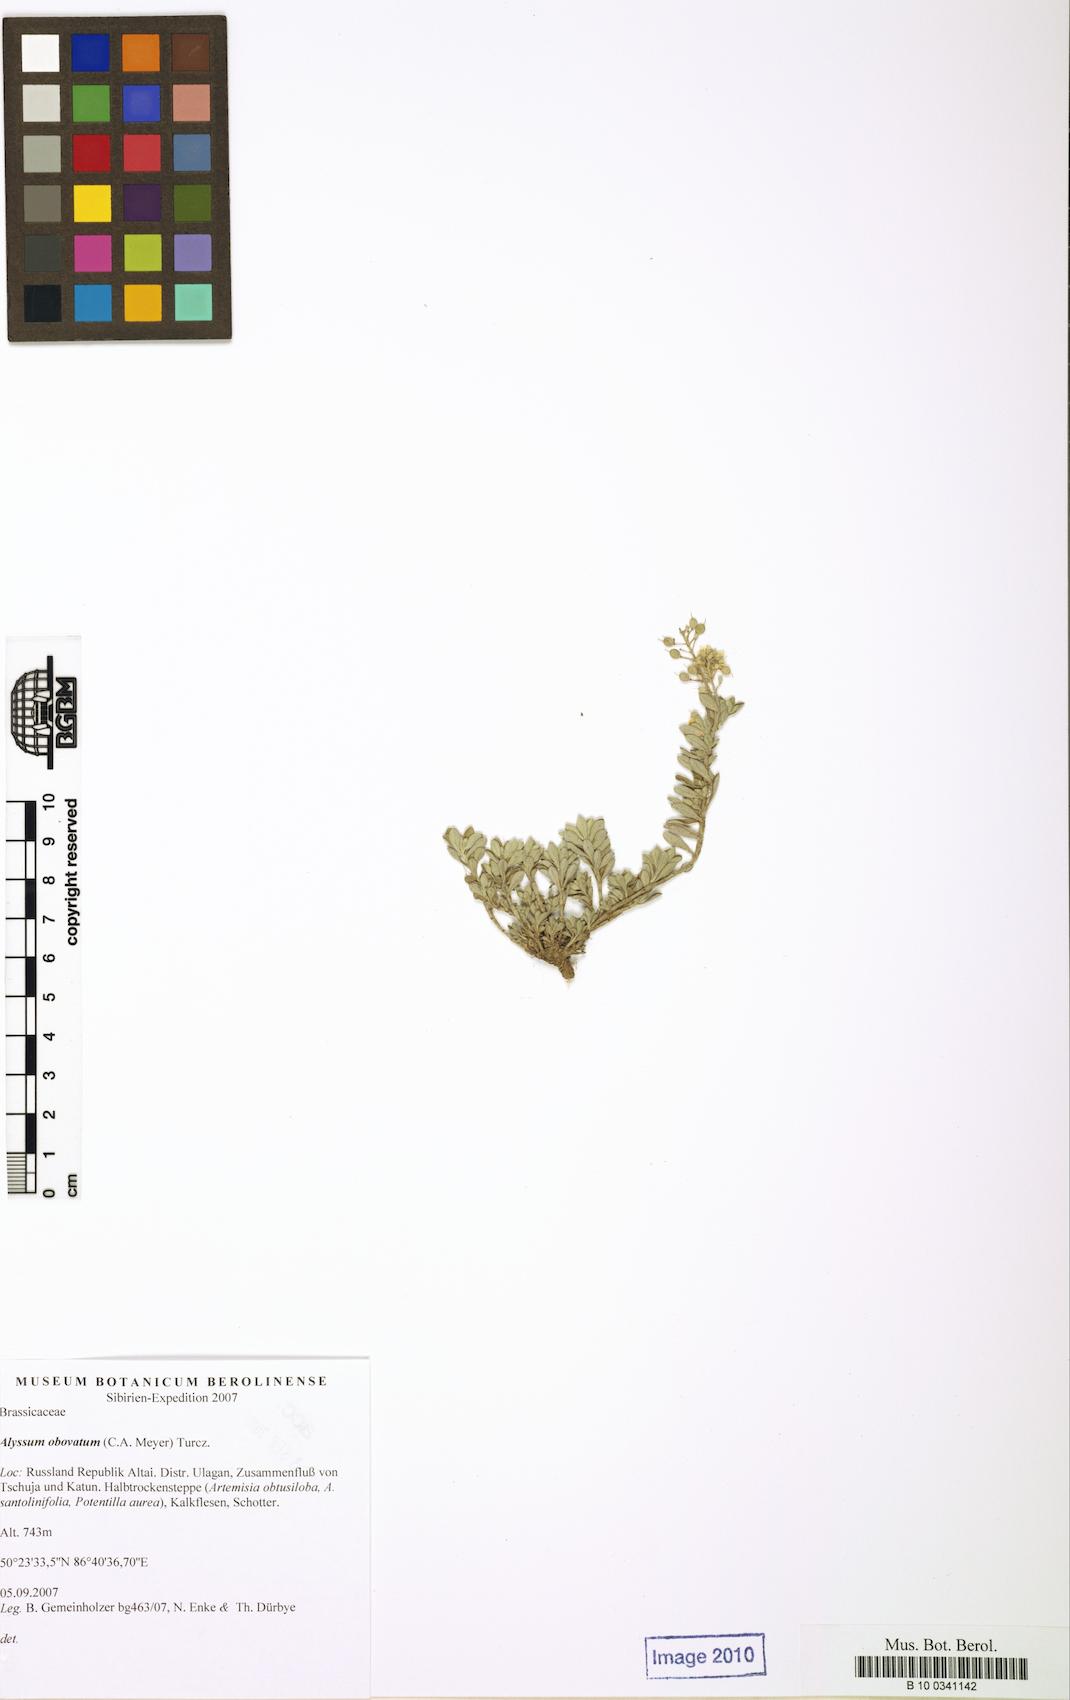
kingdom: Plantae
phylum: Tracheophyta
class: Magnoliopsida
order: Brassicales
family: Brassicaceae
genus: Odontarrhena
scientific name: Odontarrhena obovata
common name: American alyssum
